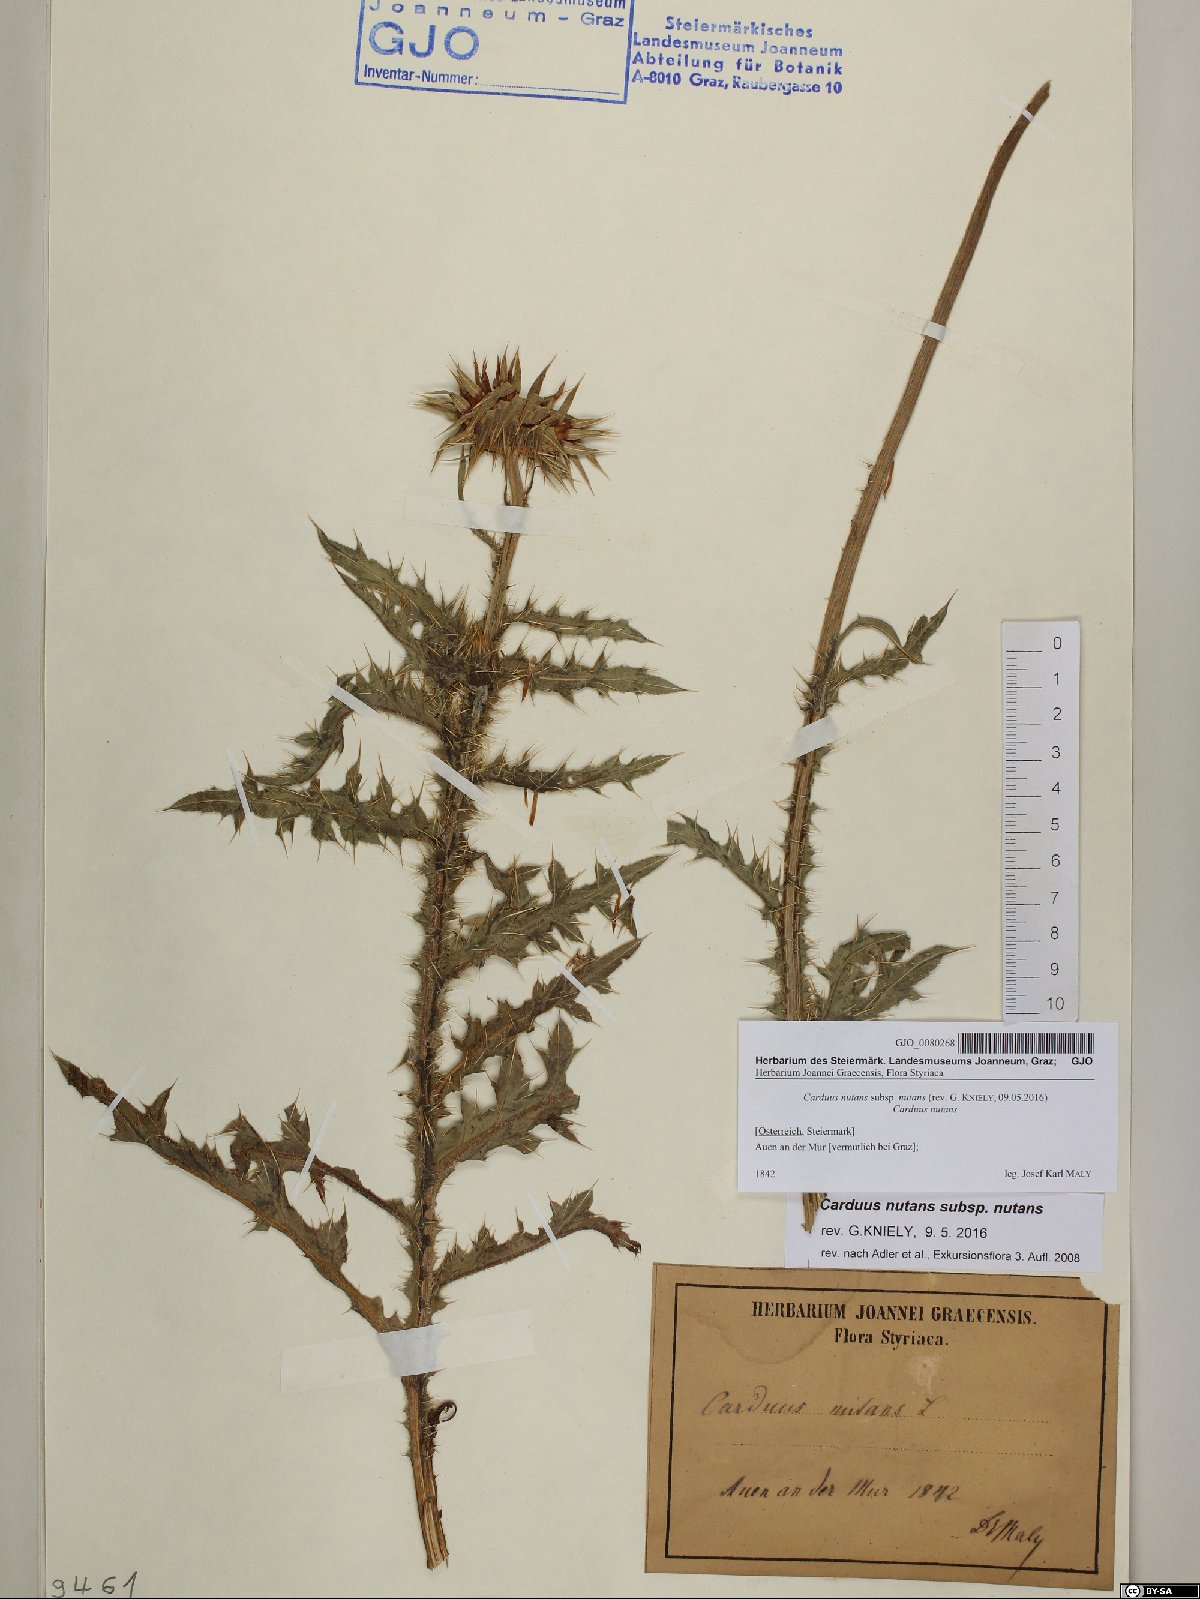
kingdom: Plantae
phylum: Tracheophyta
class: Magnoliopsida
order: Asterales
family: Asteraceae
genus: Carduus
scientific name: Carduus nutans
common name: Musk thistle
